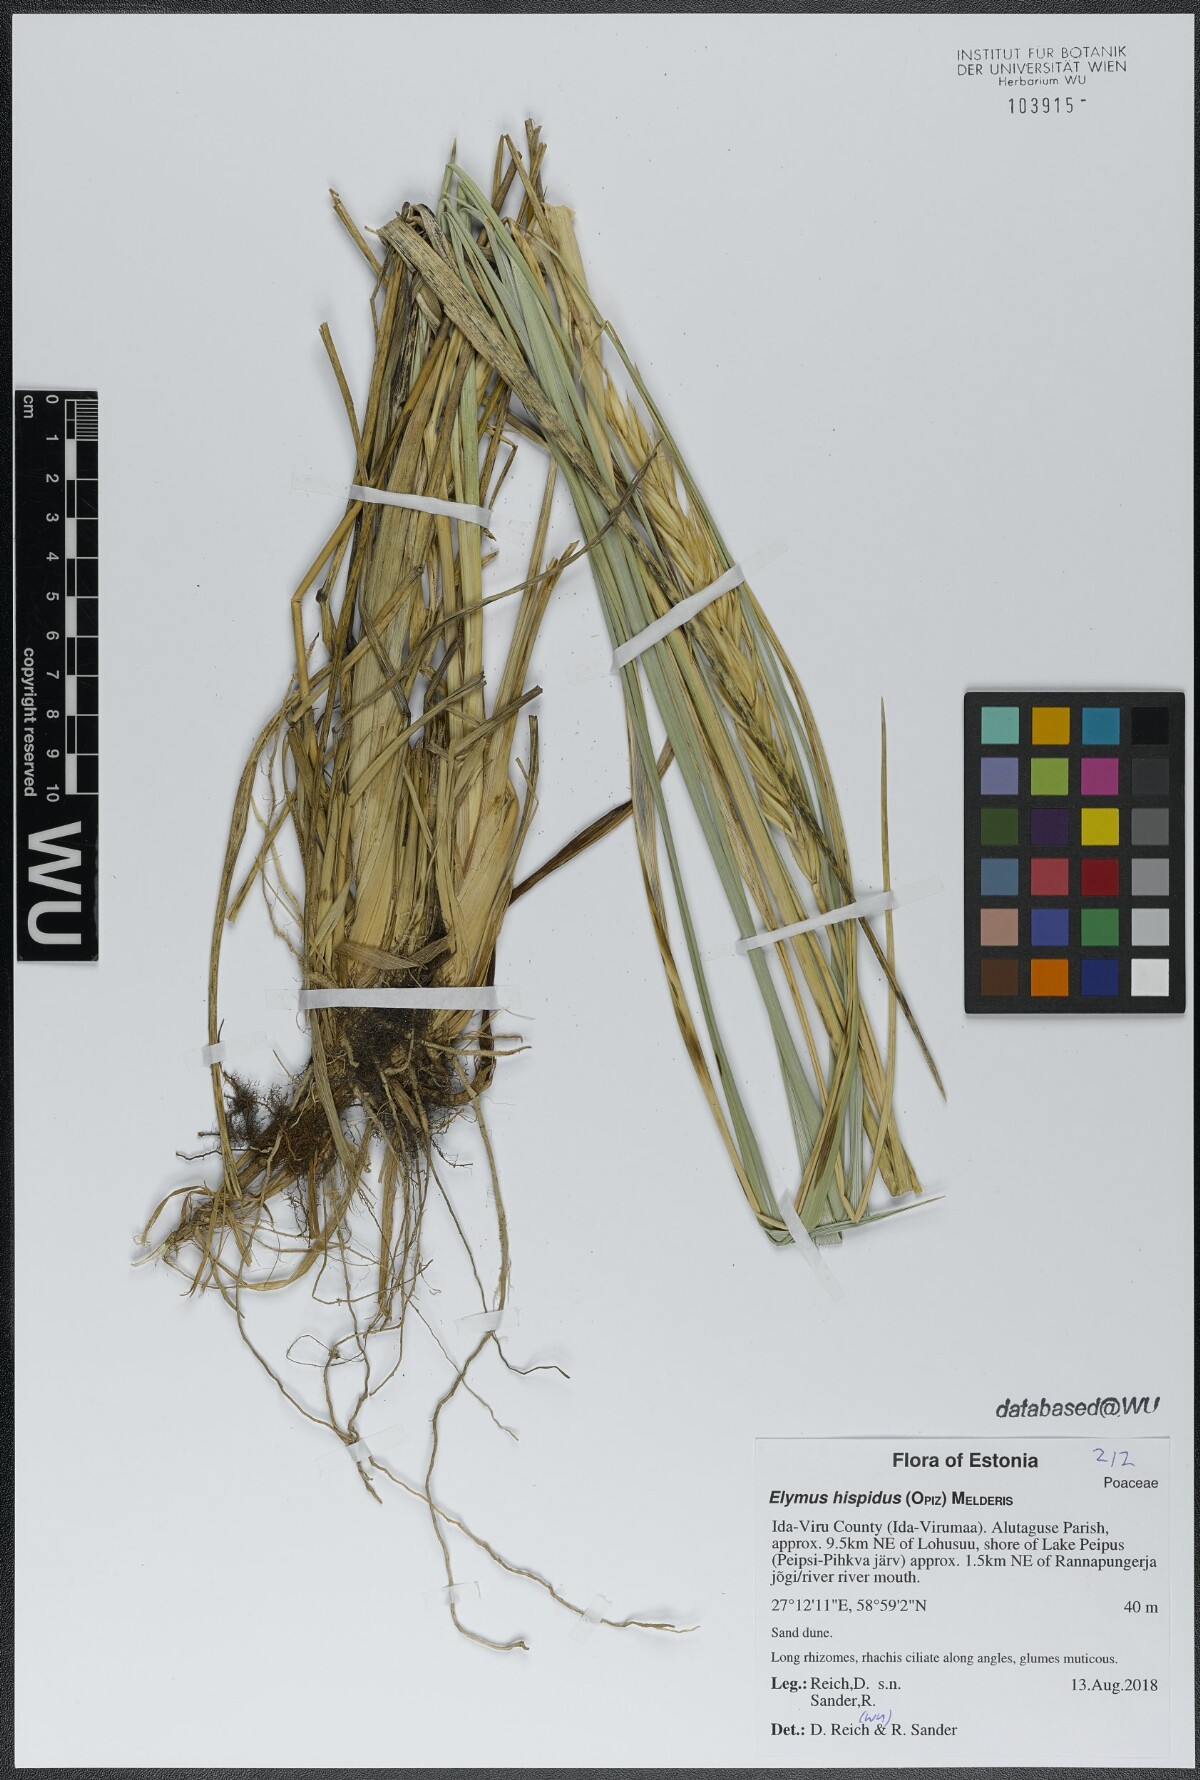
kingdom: Plantae
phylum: Tracheophyta
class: Liliopsida
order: Poales
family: Poaceae
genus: Thinopyrum
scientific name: Thinopyrum intermedium
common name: Intermediate wheatgrass
